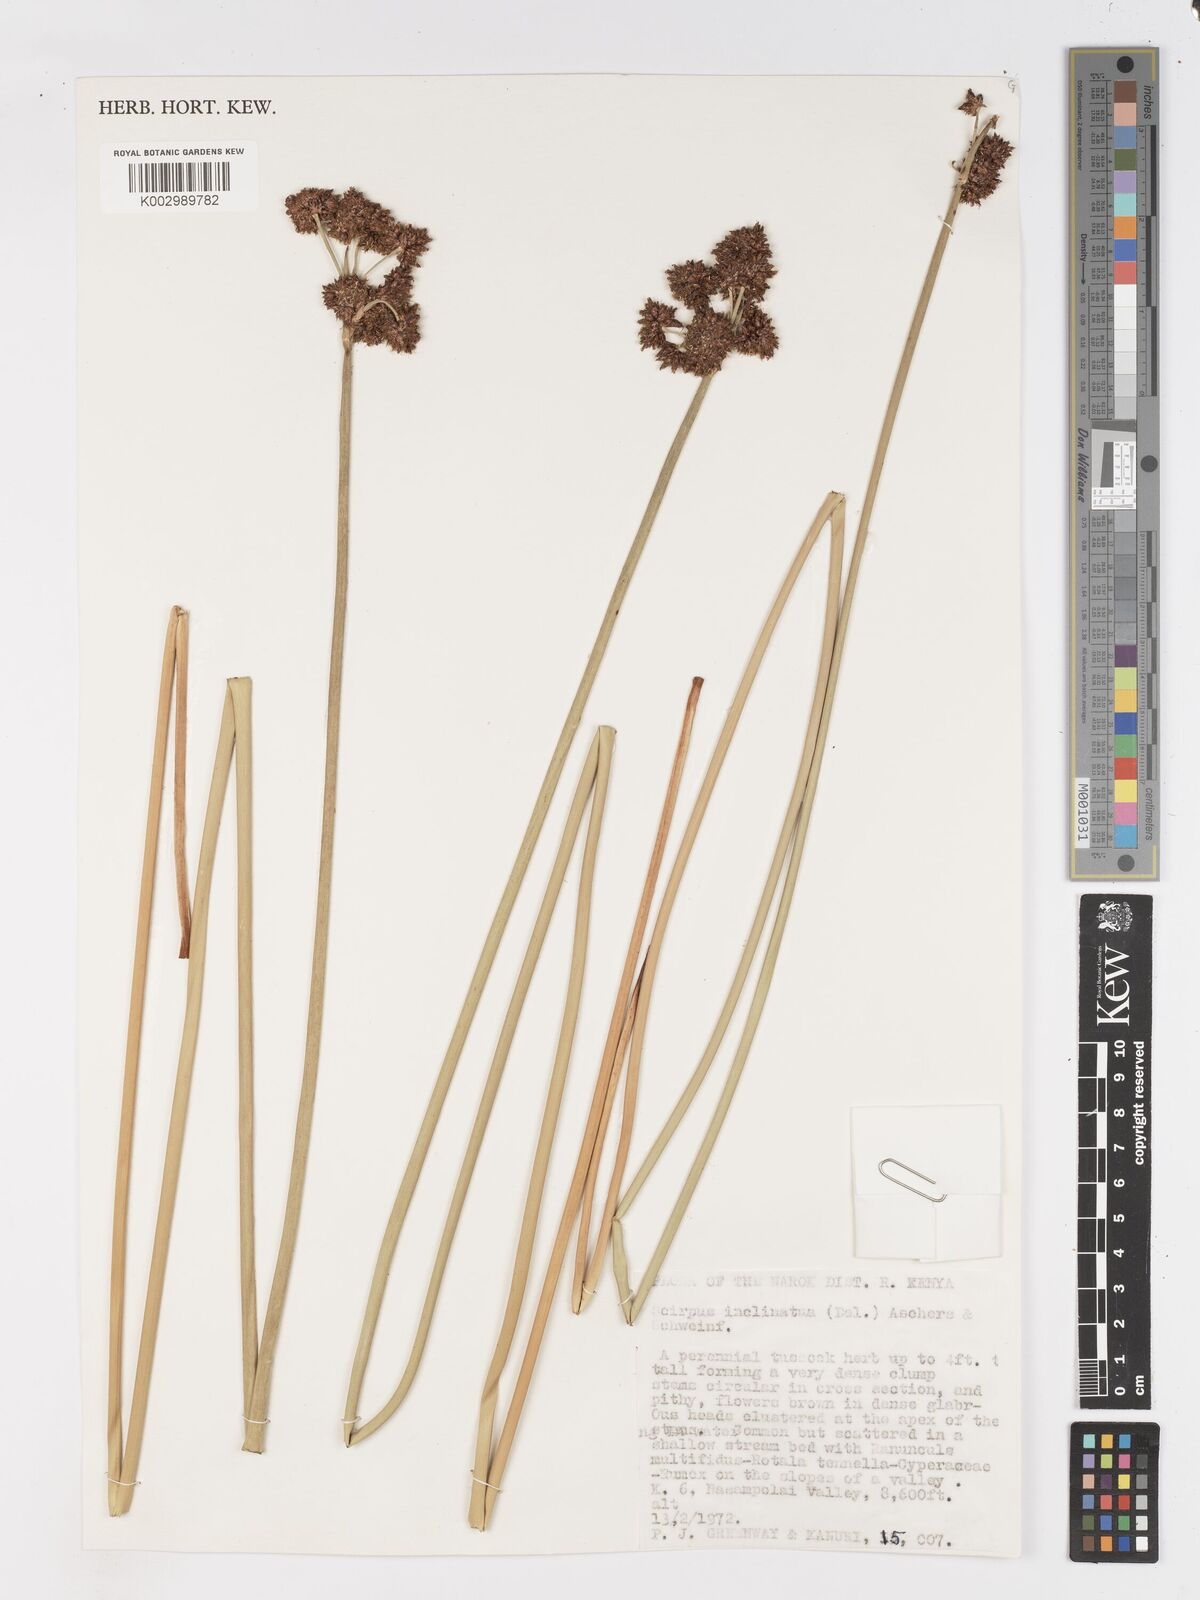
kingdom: Plantae
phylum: Tracheophyta
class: Liliopsida
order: Poales
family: Cyperaceae
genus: Schoenoplectiella
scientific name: Schoenoplectiella brachyceras
